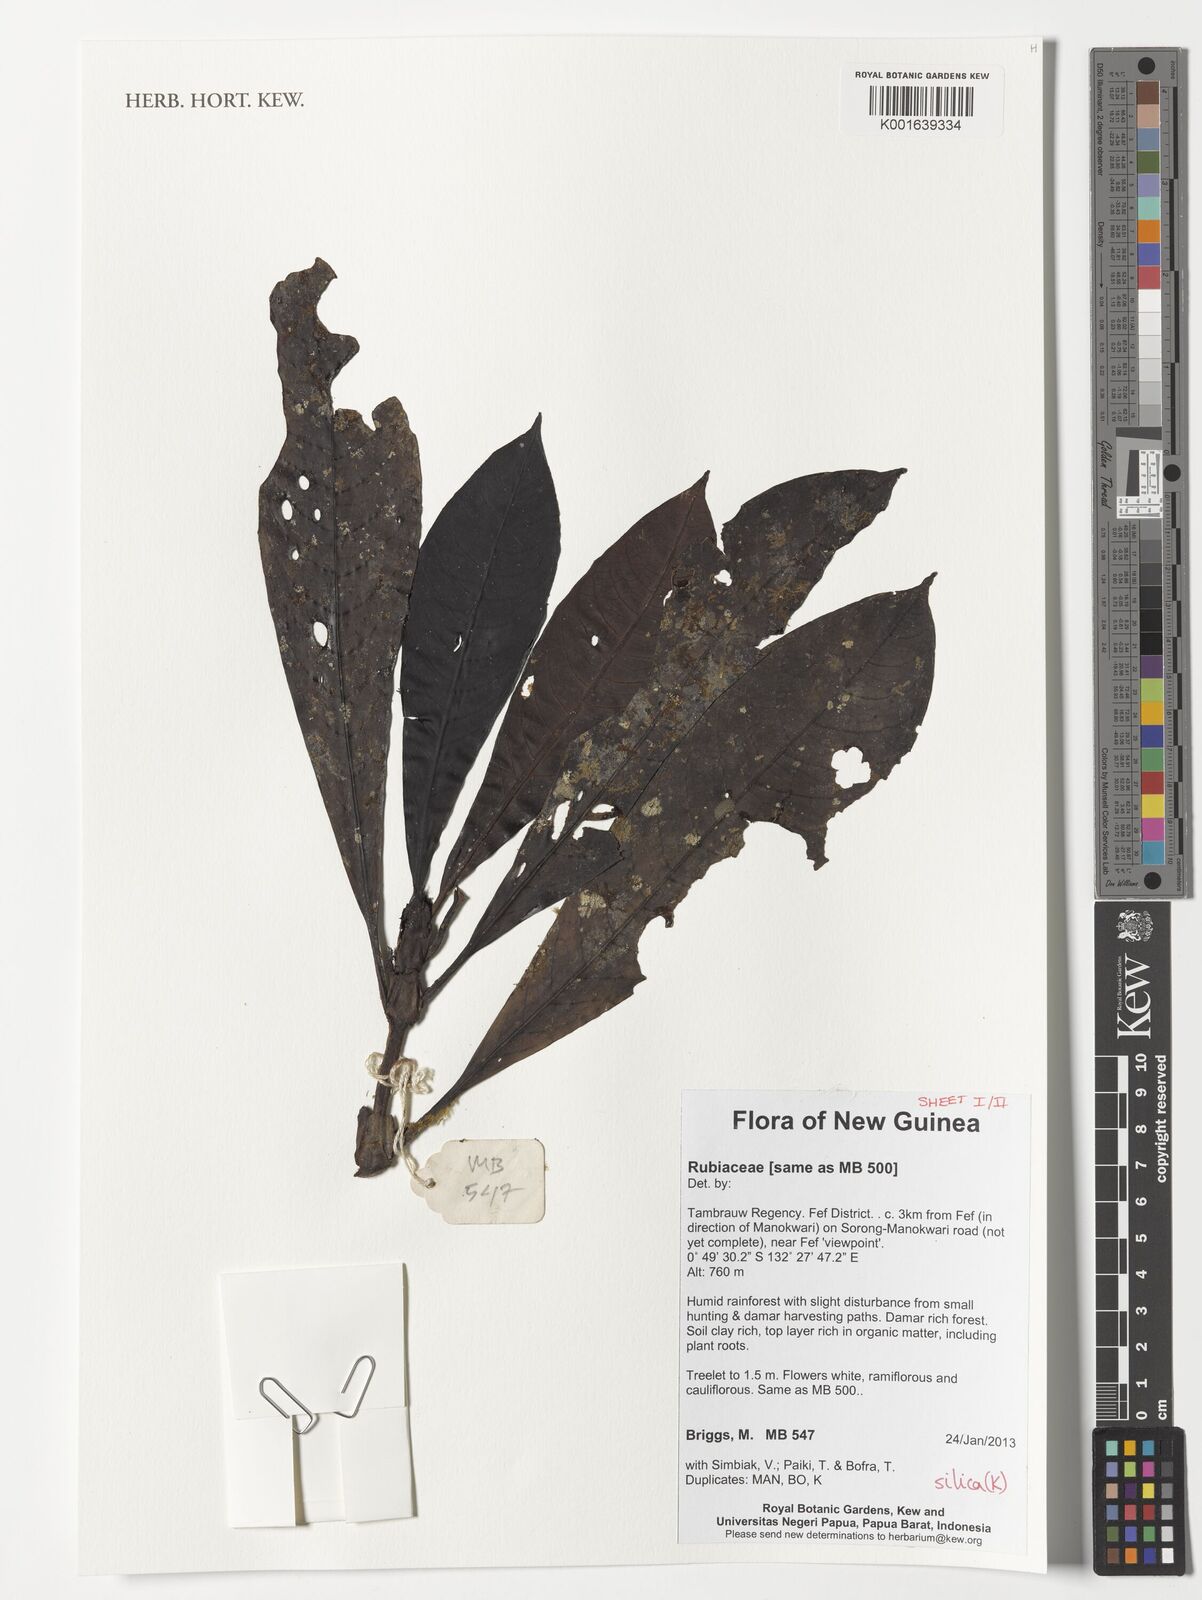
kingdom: Plantae
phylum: Tracheophyta
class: Magnoliopsida
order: Gentianales
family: Rubiaceae
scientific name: Rubiaceae
